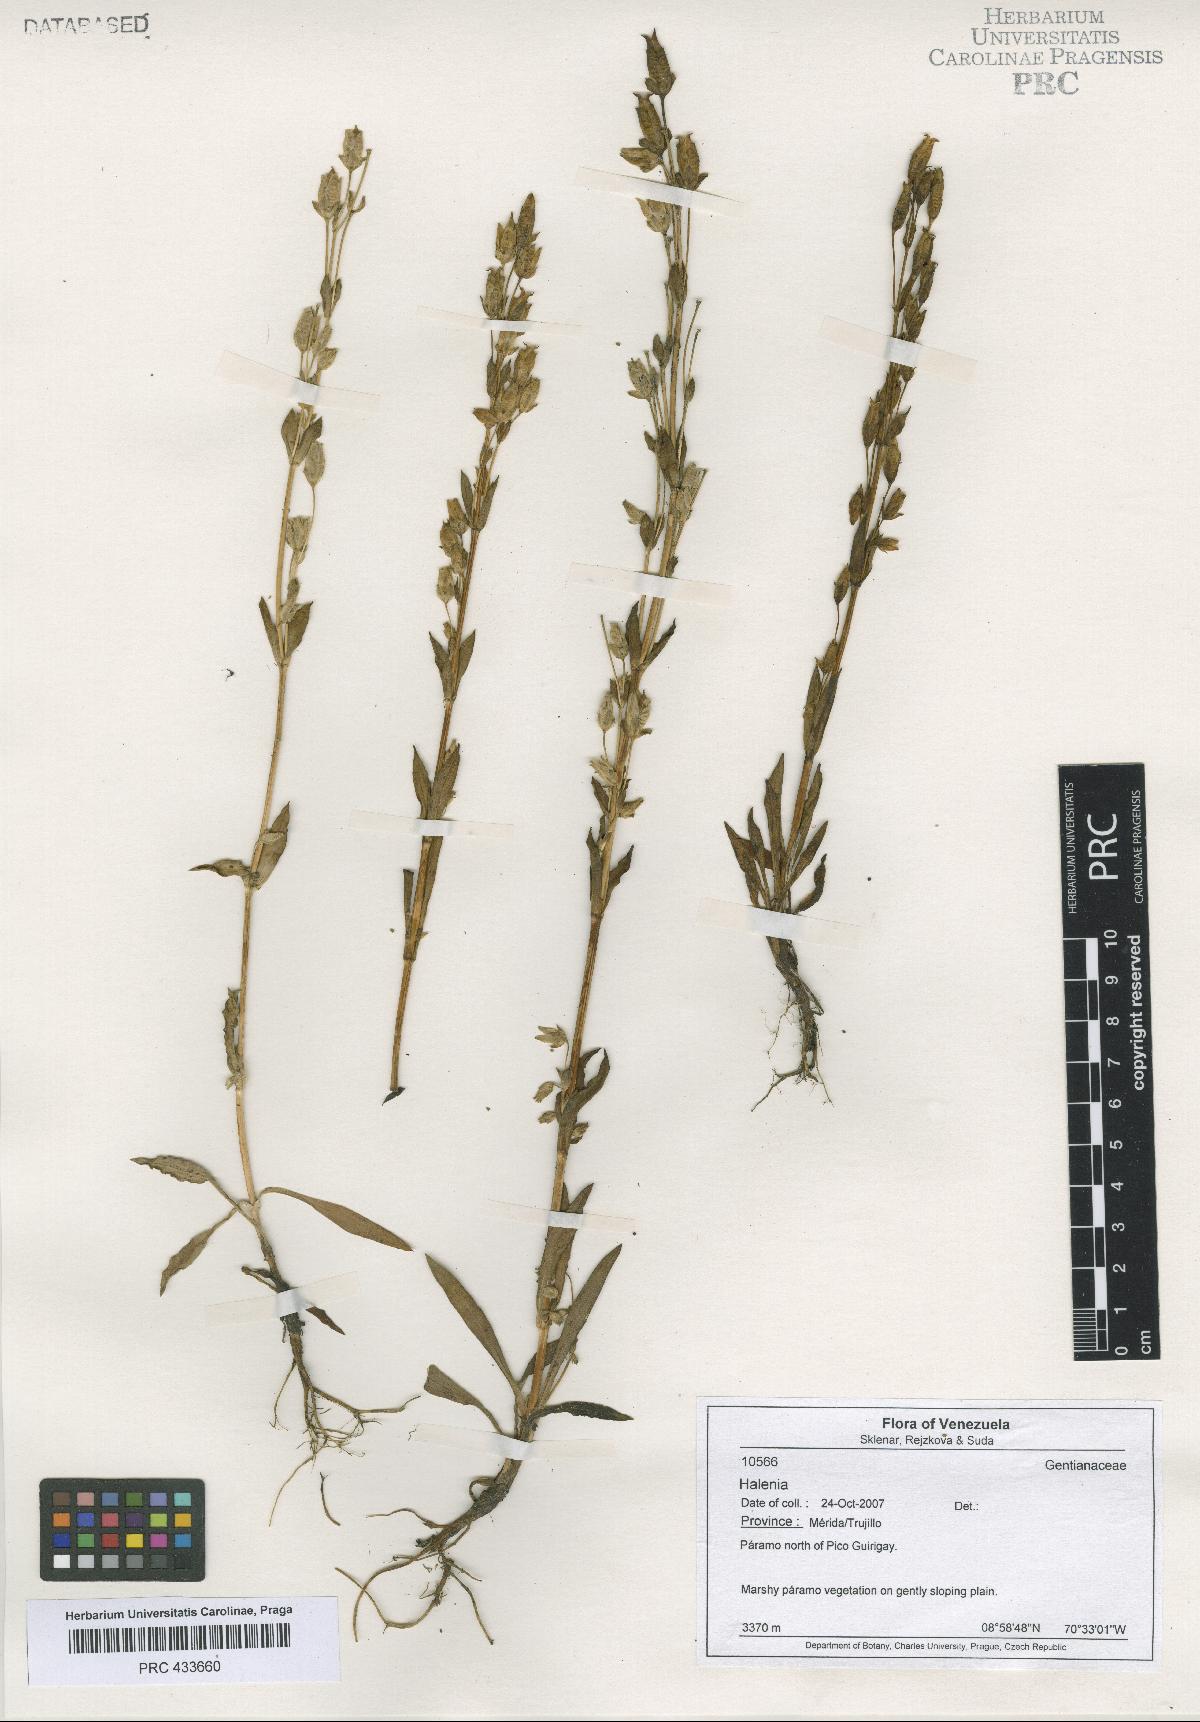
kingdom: Plantae
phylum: Tracheophyta
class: Magnoliopsida
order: Gentianales
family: Gentianaceae
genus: Halenia
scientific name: Halenia
